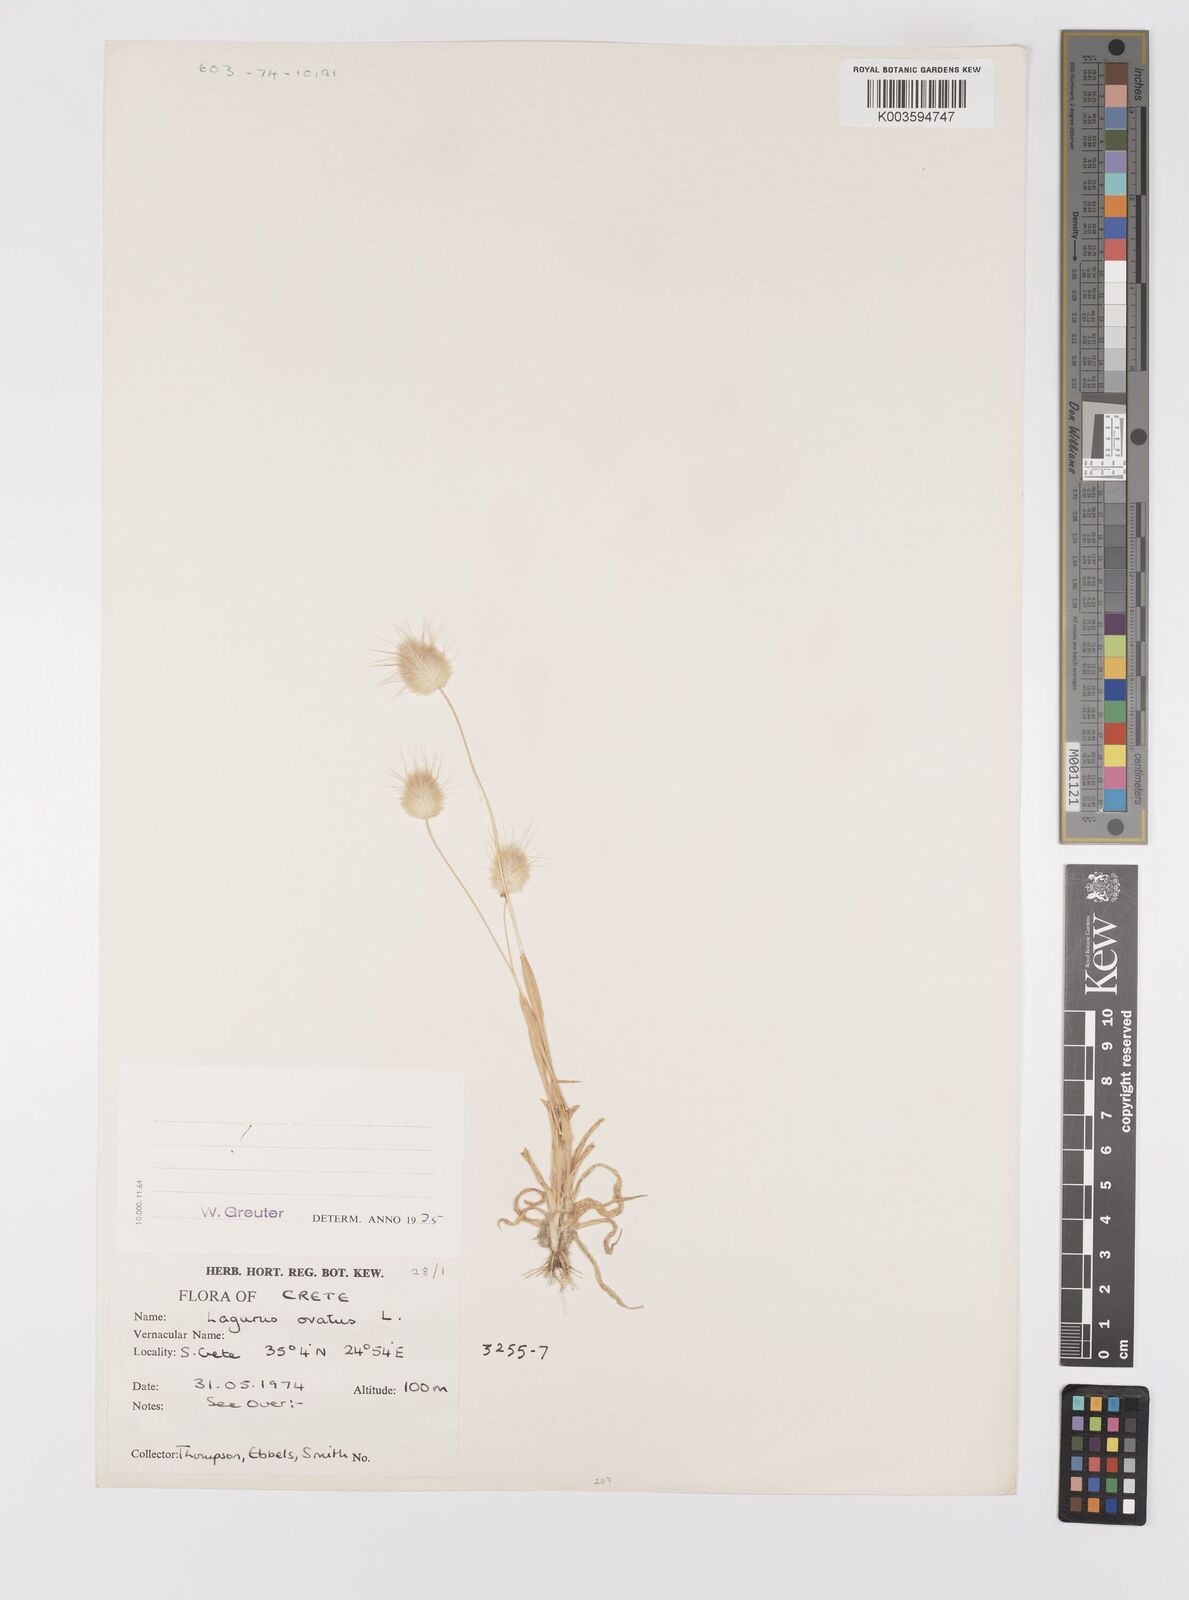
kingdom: Plantae
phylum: Tracheophyta
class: Liliopsida
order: Poales
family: Poaceae
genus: Lagurus
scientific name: Lagurus ovatus
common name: Hare's-tail
